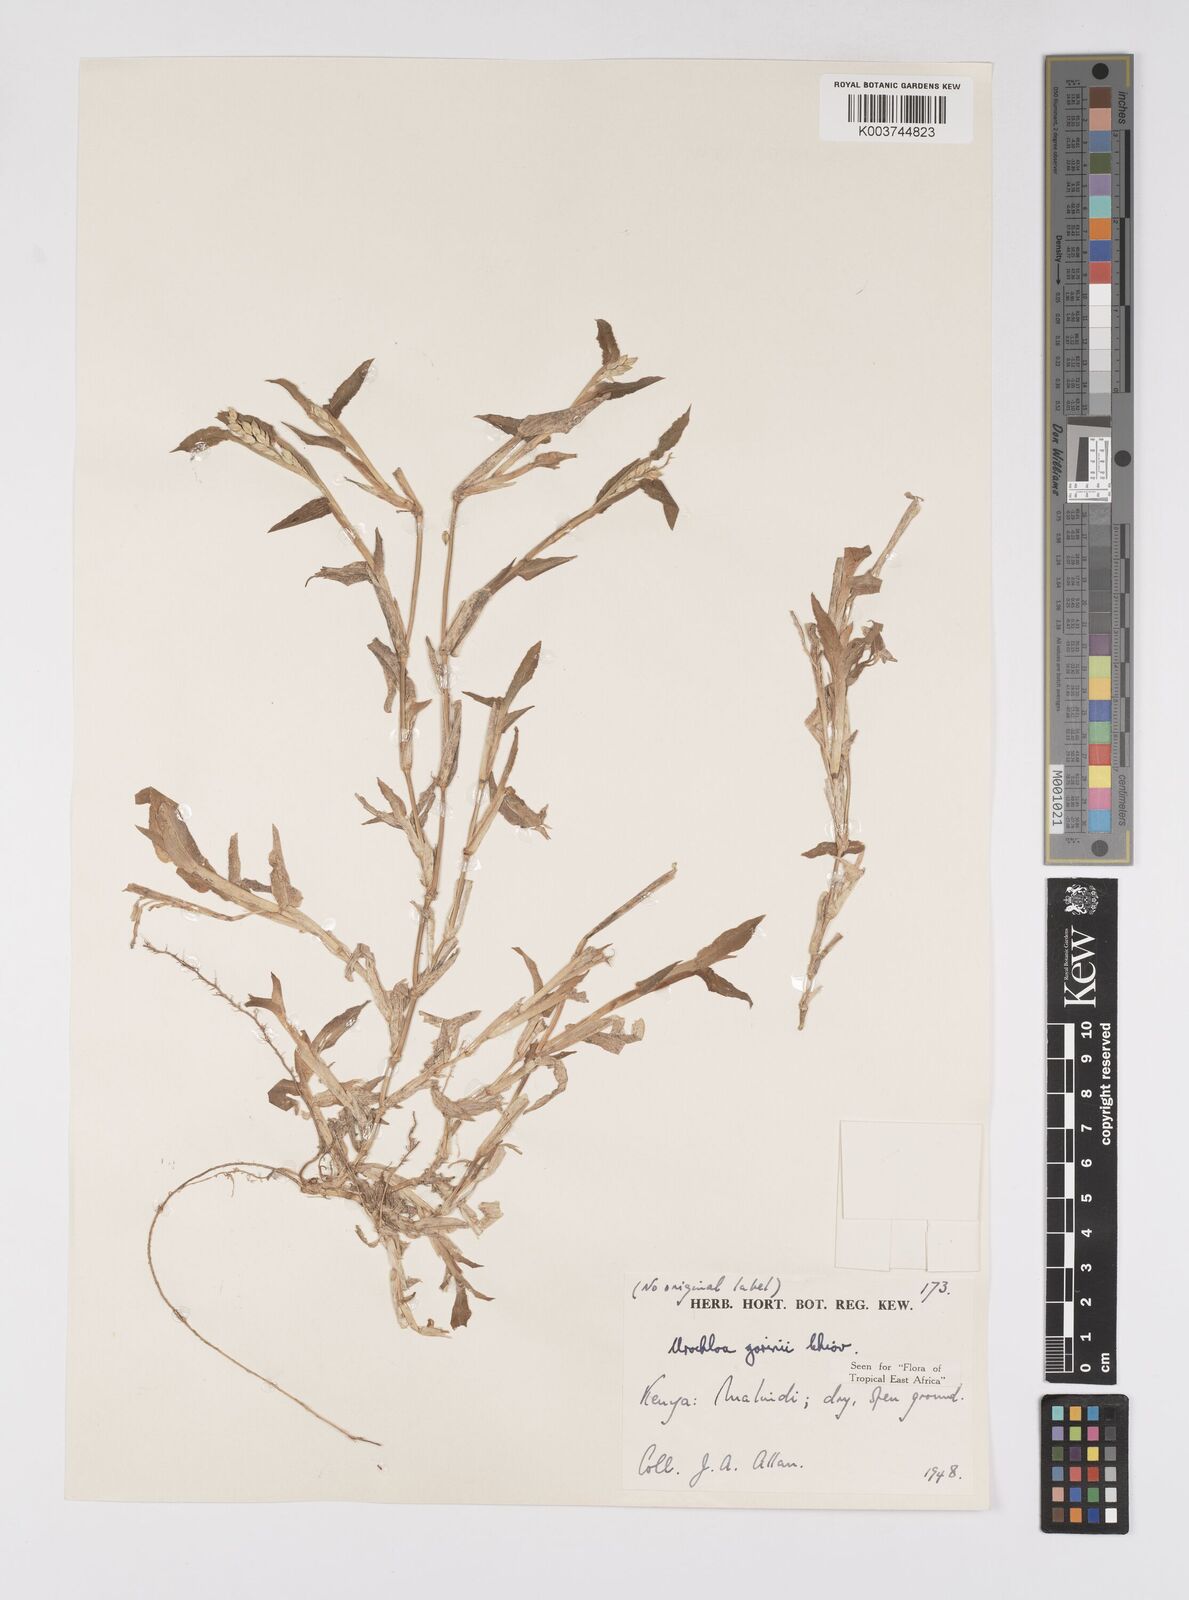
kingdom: Plantae
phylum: Tracheophyta
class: Liliopsida
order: Poales
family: Poaceae
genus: Urochloa
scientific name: Urochloa rudis
